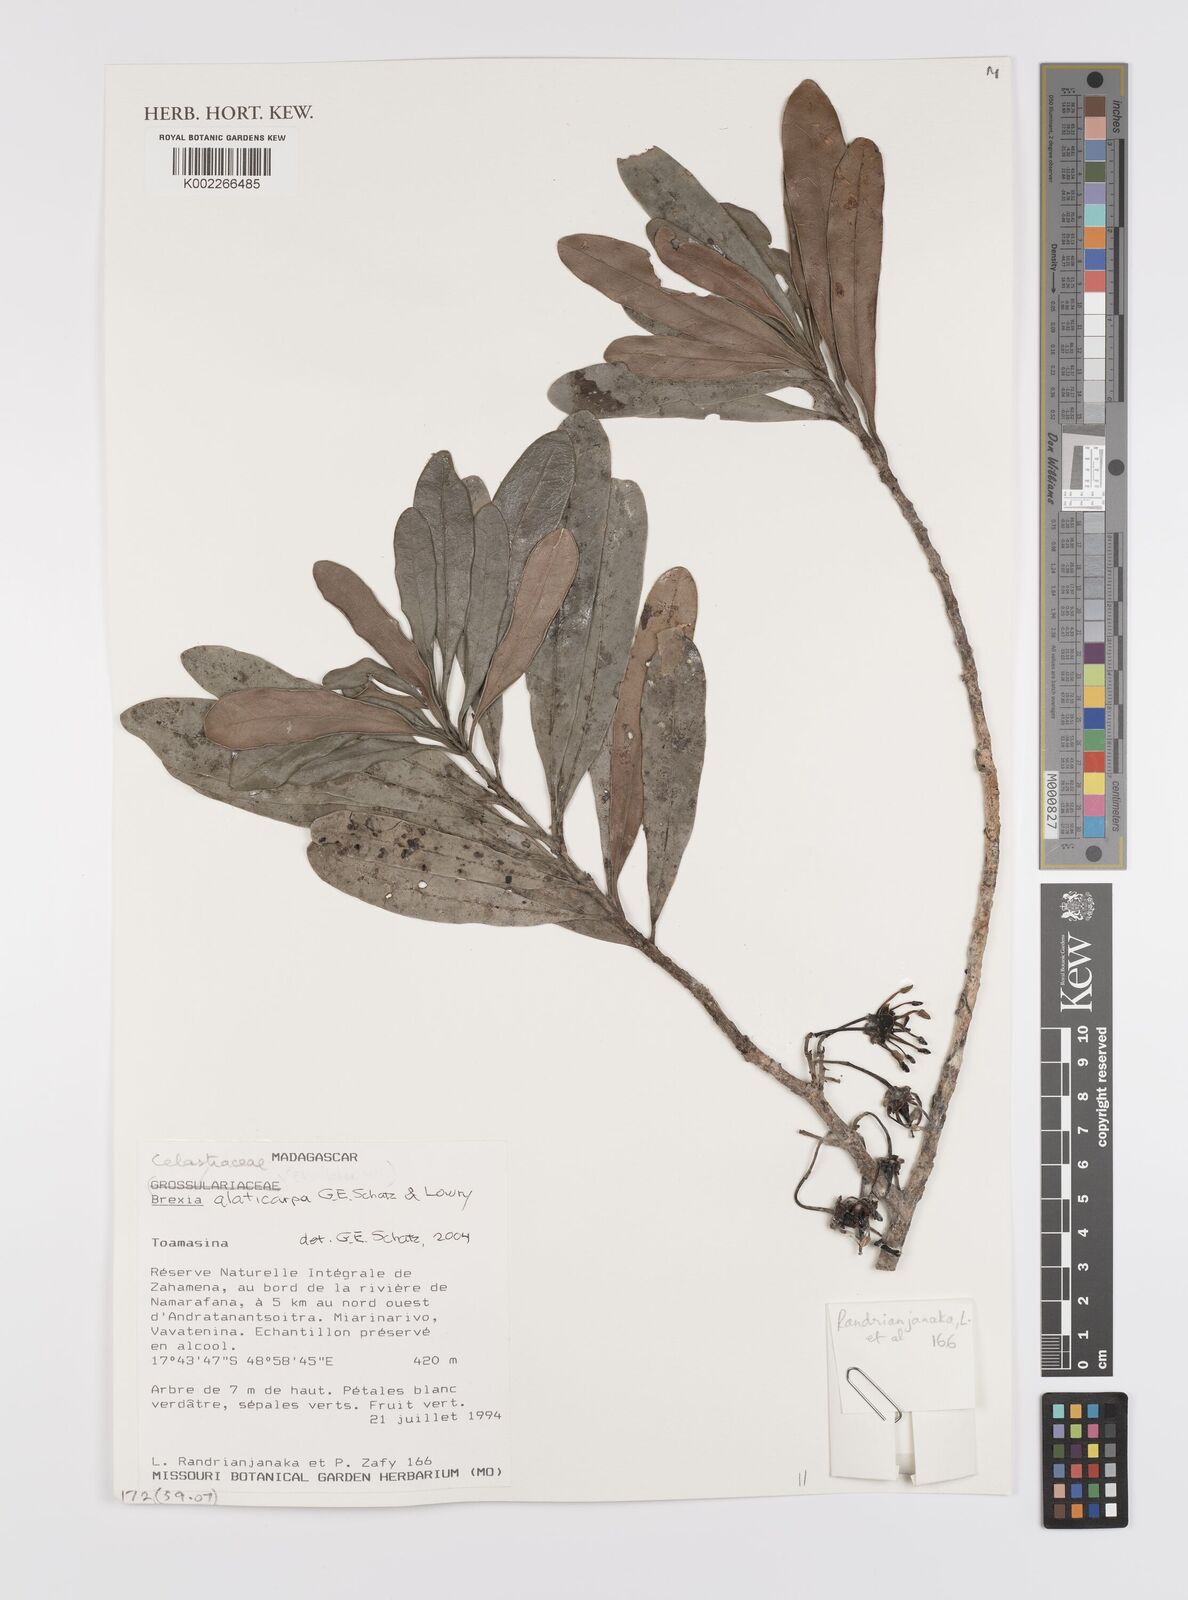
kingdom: Plantae
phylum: Tracheophyta
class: Magnoliopsida
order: Celastrales
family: Celastraceae
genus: Brexia
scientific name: Brexia alaticarpa
